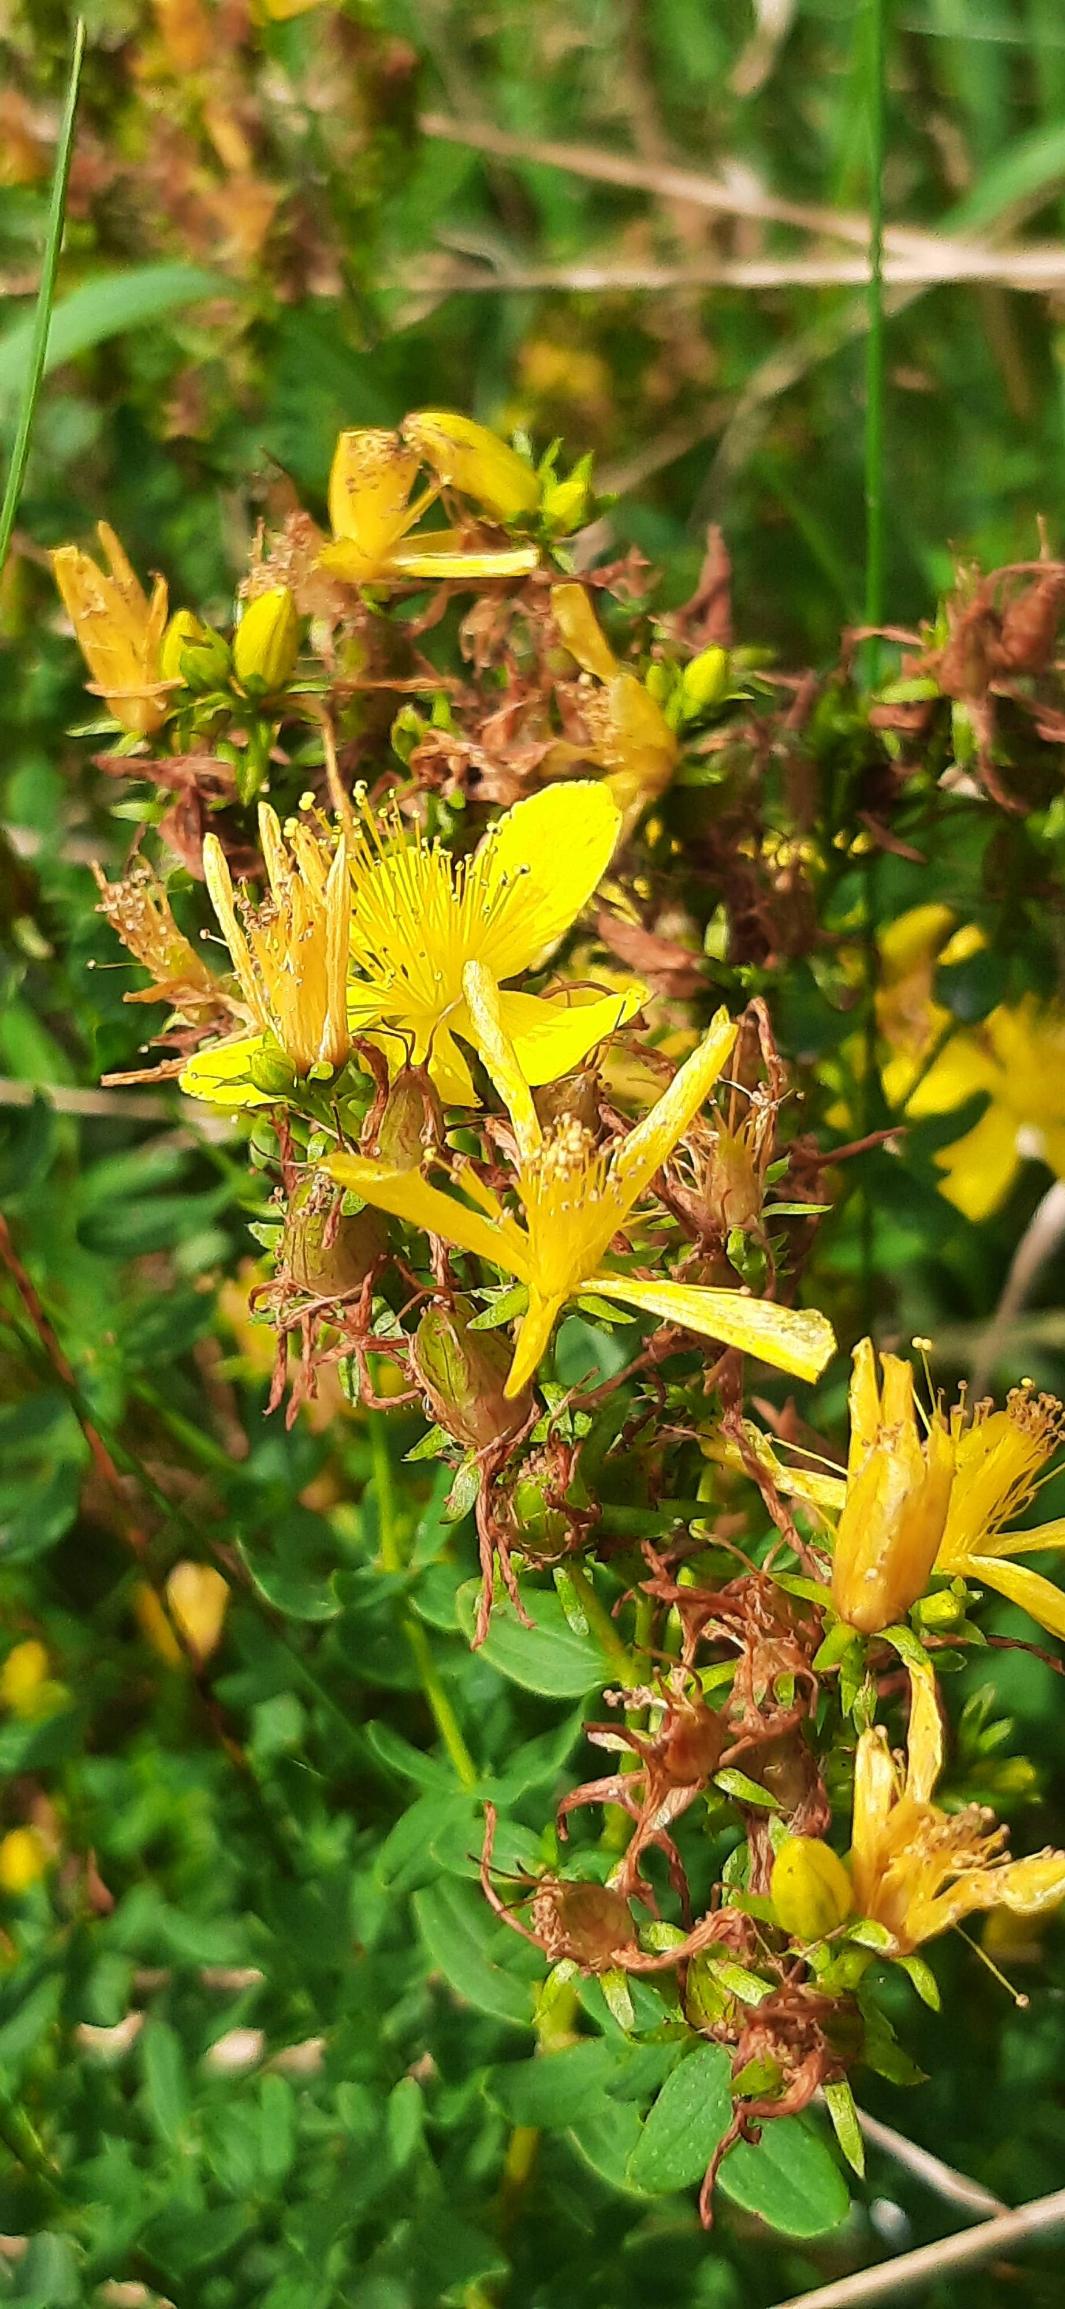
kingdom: Plantae
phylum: Tracheophyta
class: Magnoliopsida
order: Malpighiales
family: Hypericaceae
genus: Hypericum
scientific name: Hypericum perforatum
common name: Prikbladet perikon
